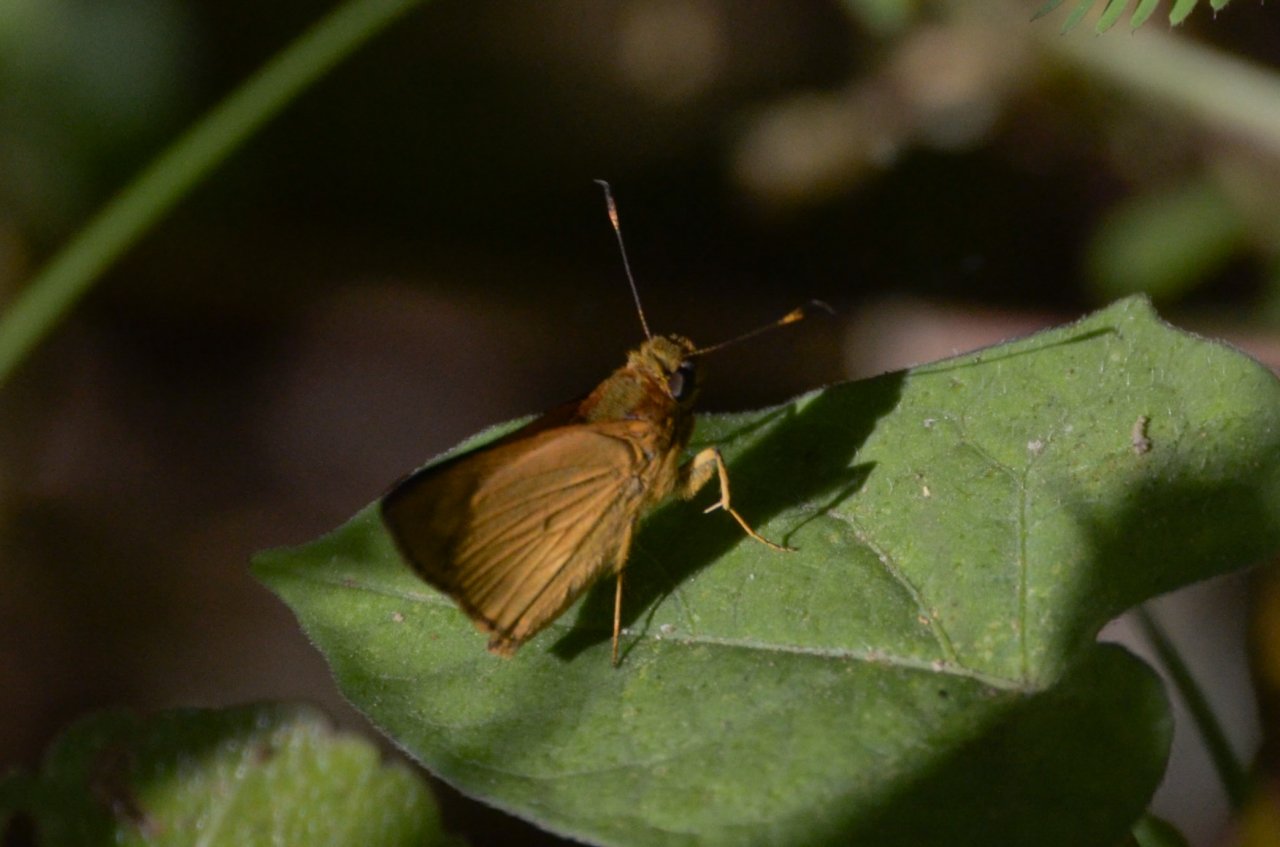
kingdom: Animalia
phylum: Arthropoda
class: Insecta
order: Lepidoptera
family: Hesperiidae
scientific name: Hesperiidae
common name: Skippers
